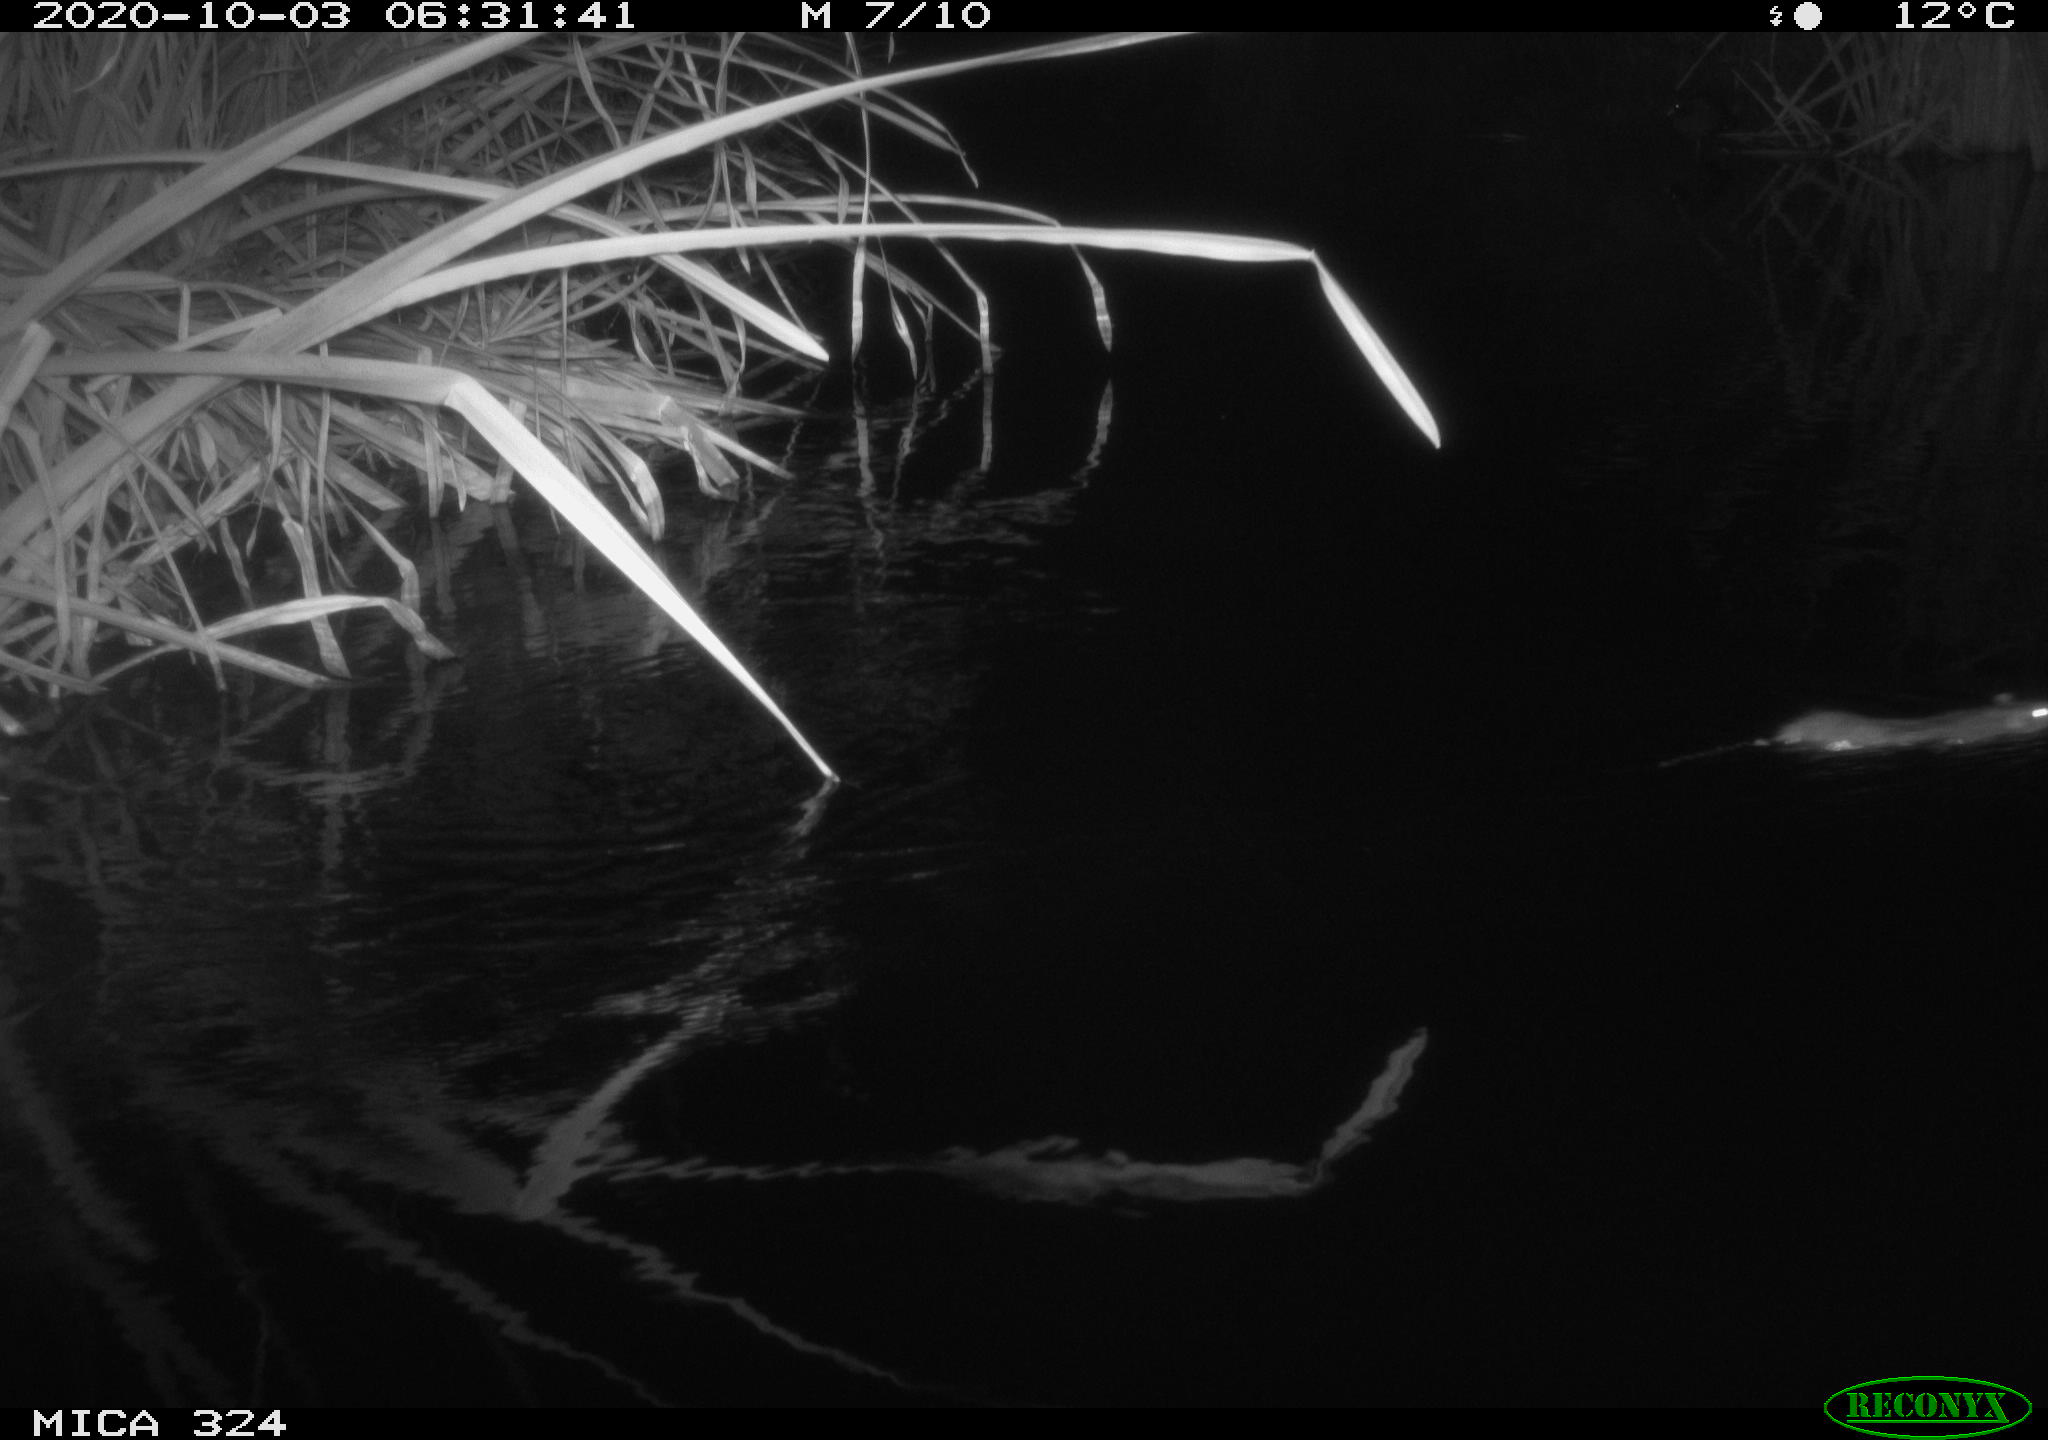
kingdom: Animalia
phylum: Chordata
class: Mammalia
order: Rodentia
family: Muridae
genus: Rattus
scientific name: Rattus norvegicus
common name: Brown rat
